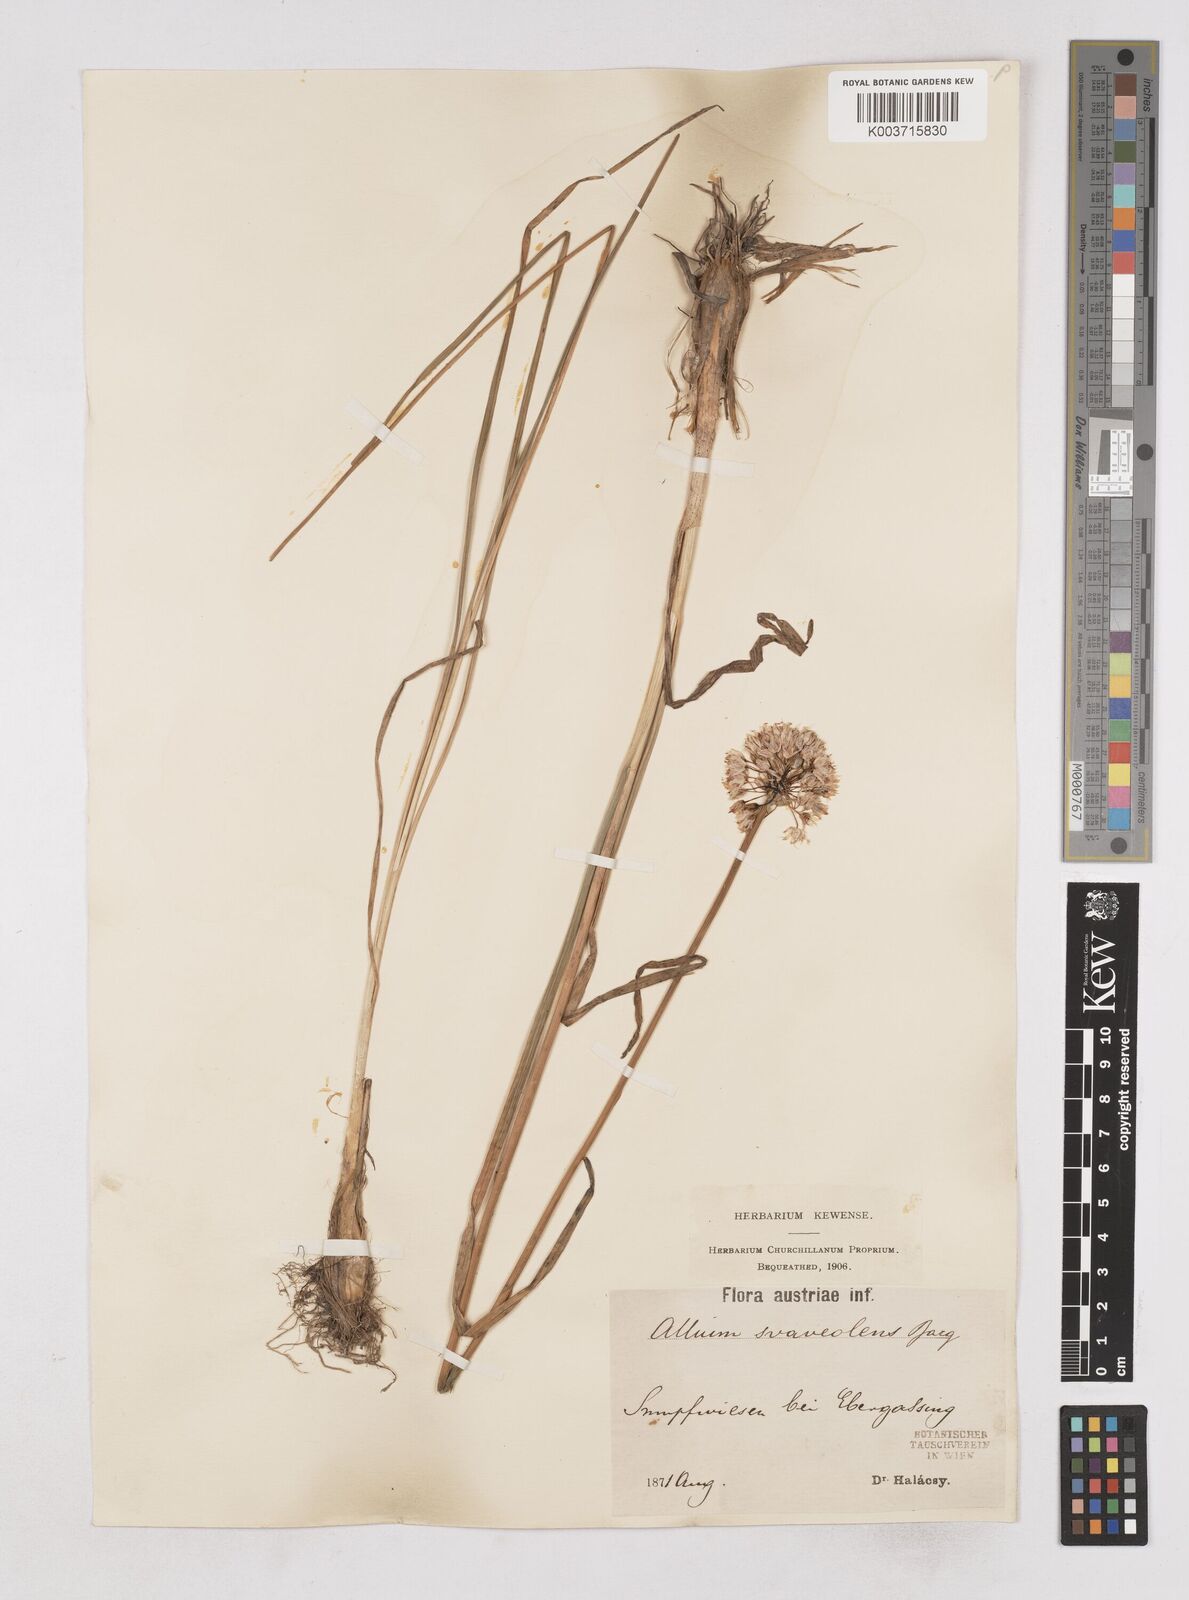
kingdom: Plantae
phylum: Tracheophyta
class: Liliopsida
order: Asparagales
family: Amaryllidaceae
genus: Allium
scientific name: Allium suaveolens
